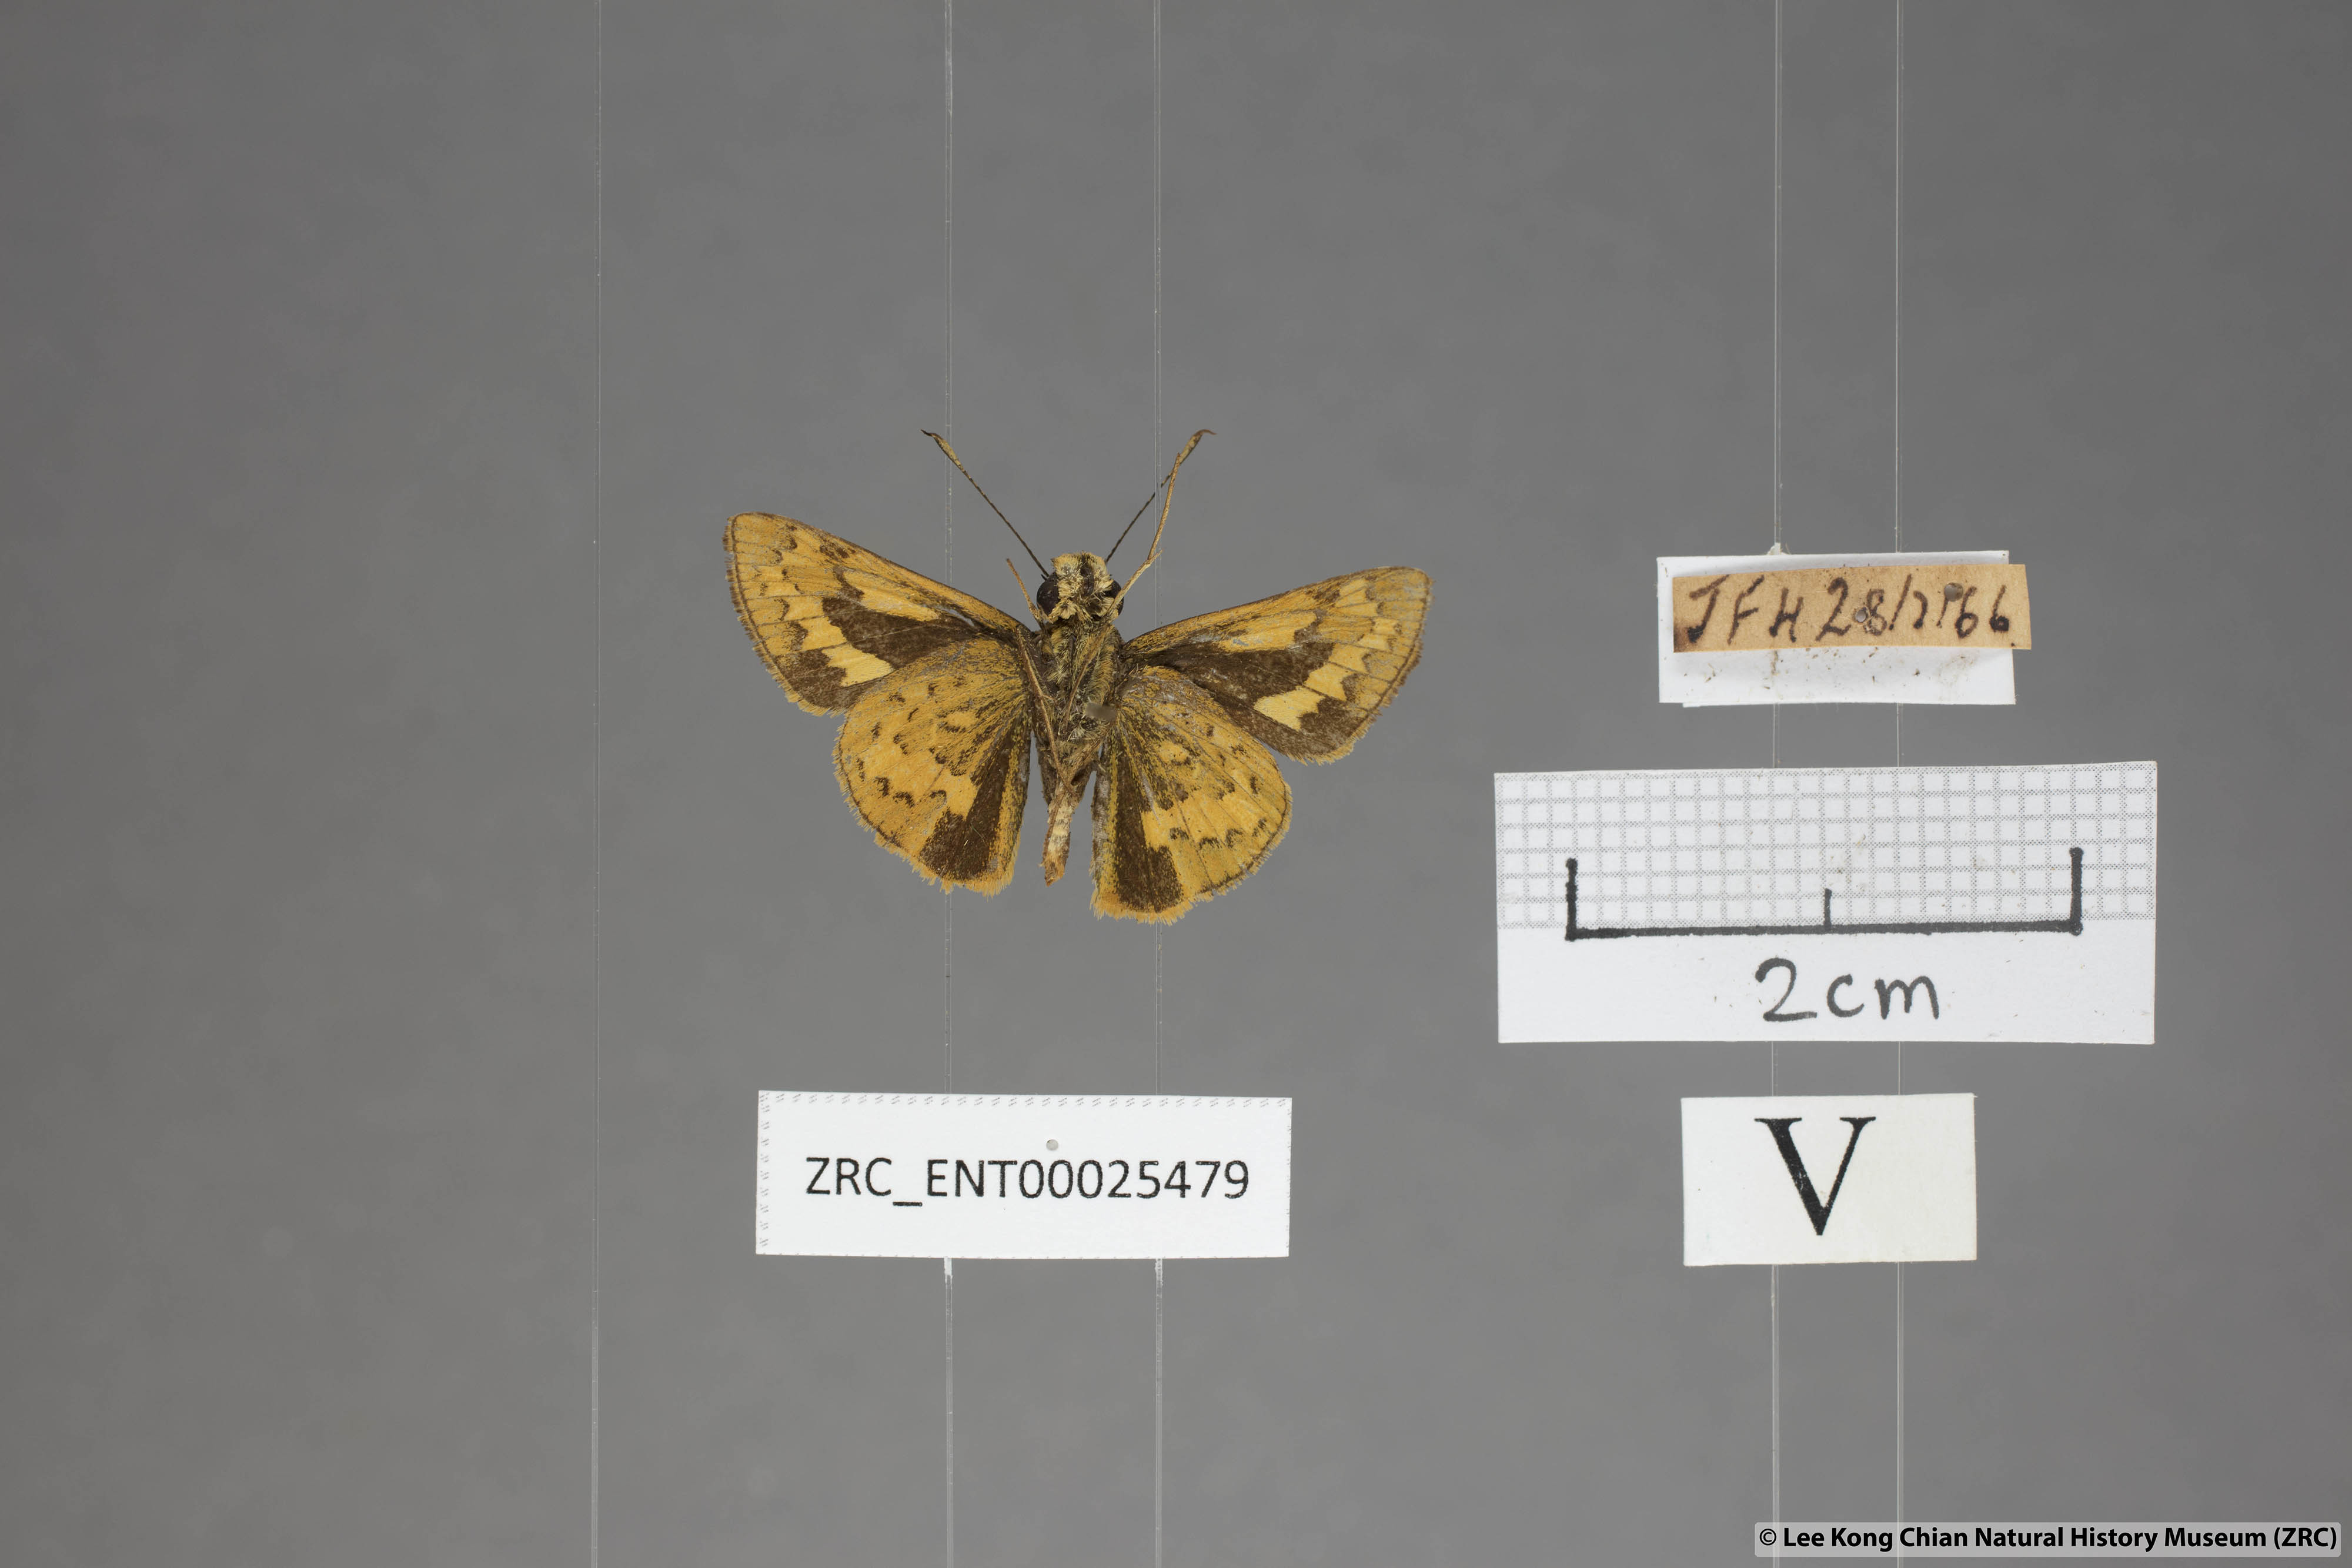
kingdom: Animalia
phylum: Arthropoda
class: Insecta
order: Lepidoptera
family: Hesperiidae
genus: Potanthus
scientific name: Potanthus rectifasciata
